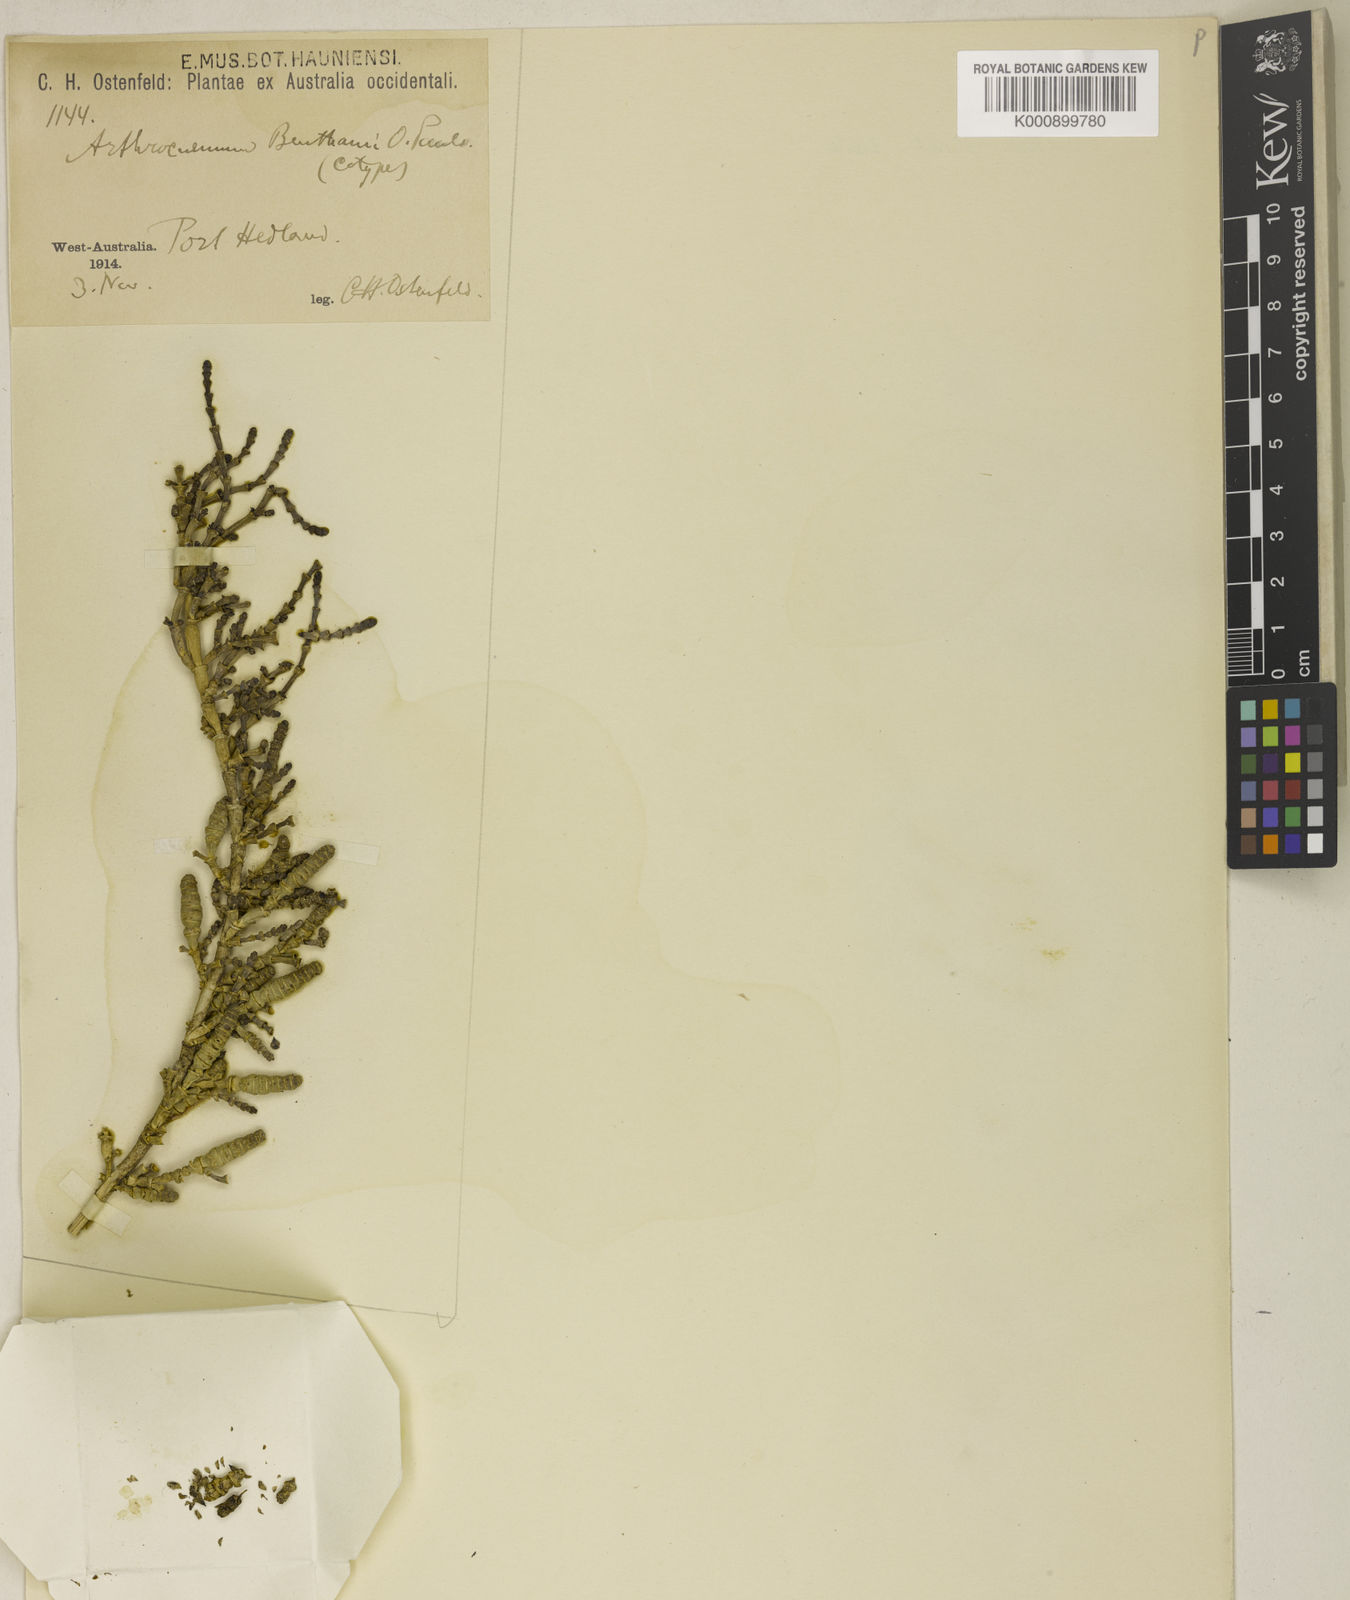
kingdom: Plantae
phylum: Tracheophyta
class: Magnoliopsida
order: Caryophyllales
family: Amaranthaceae
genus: Tecticornia
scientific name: Tecticornia indica
